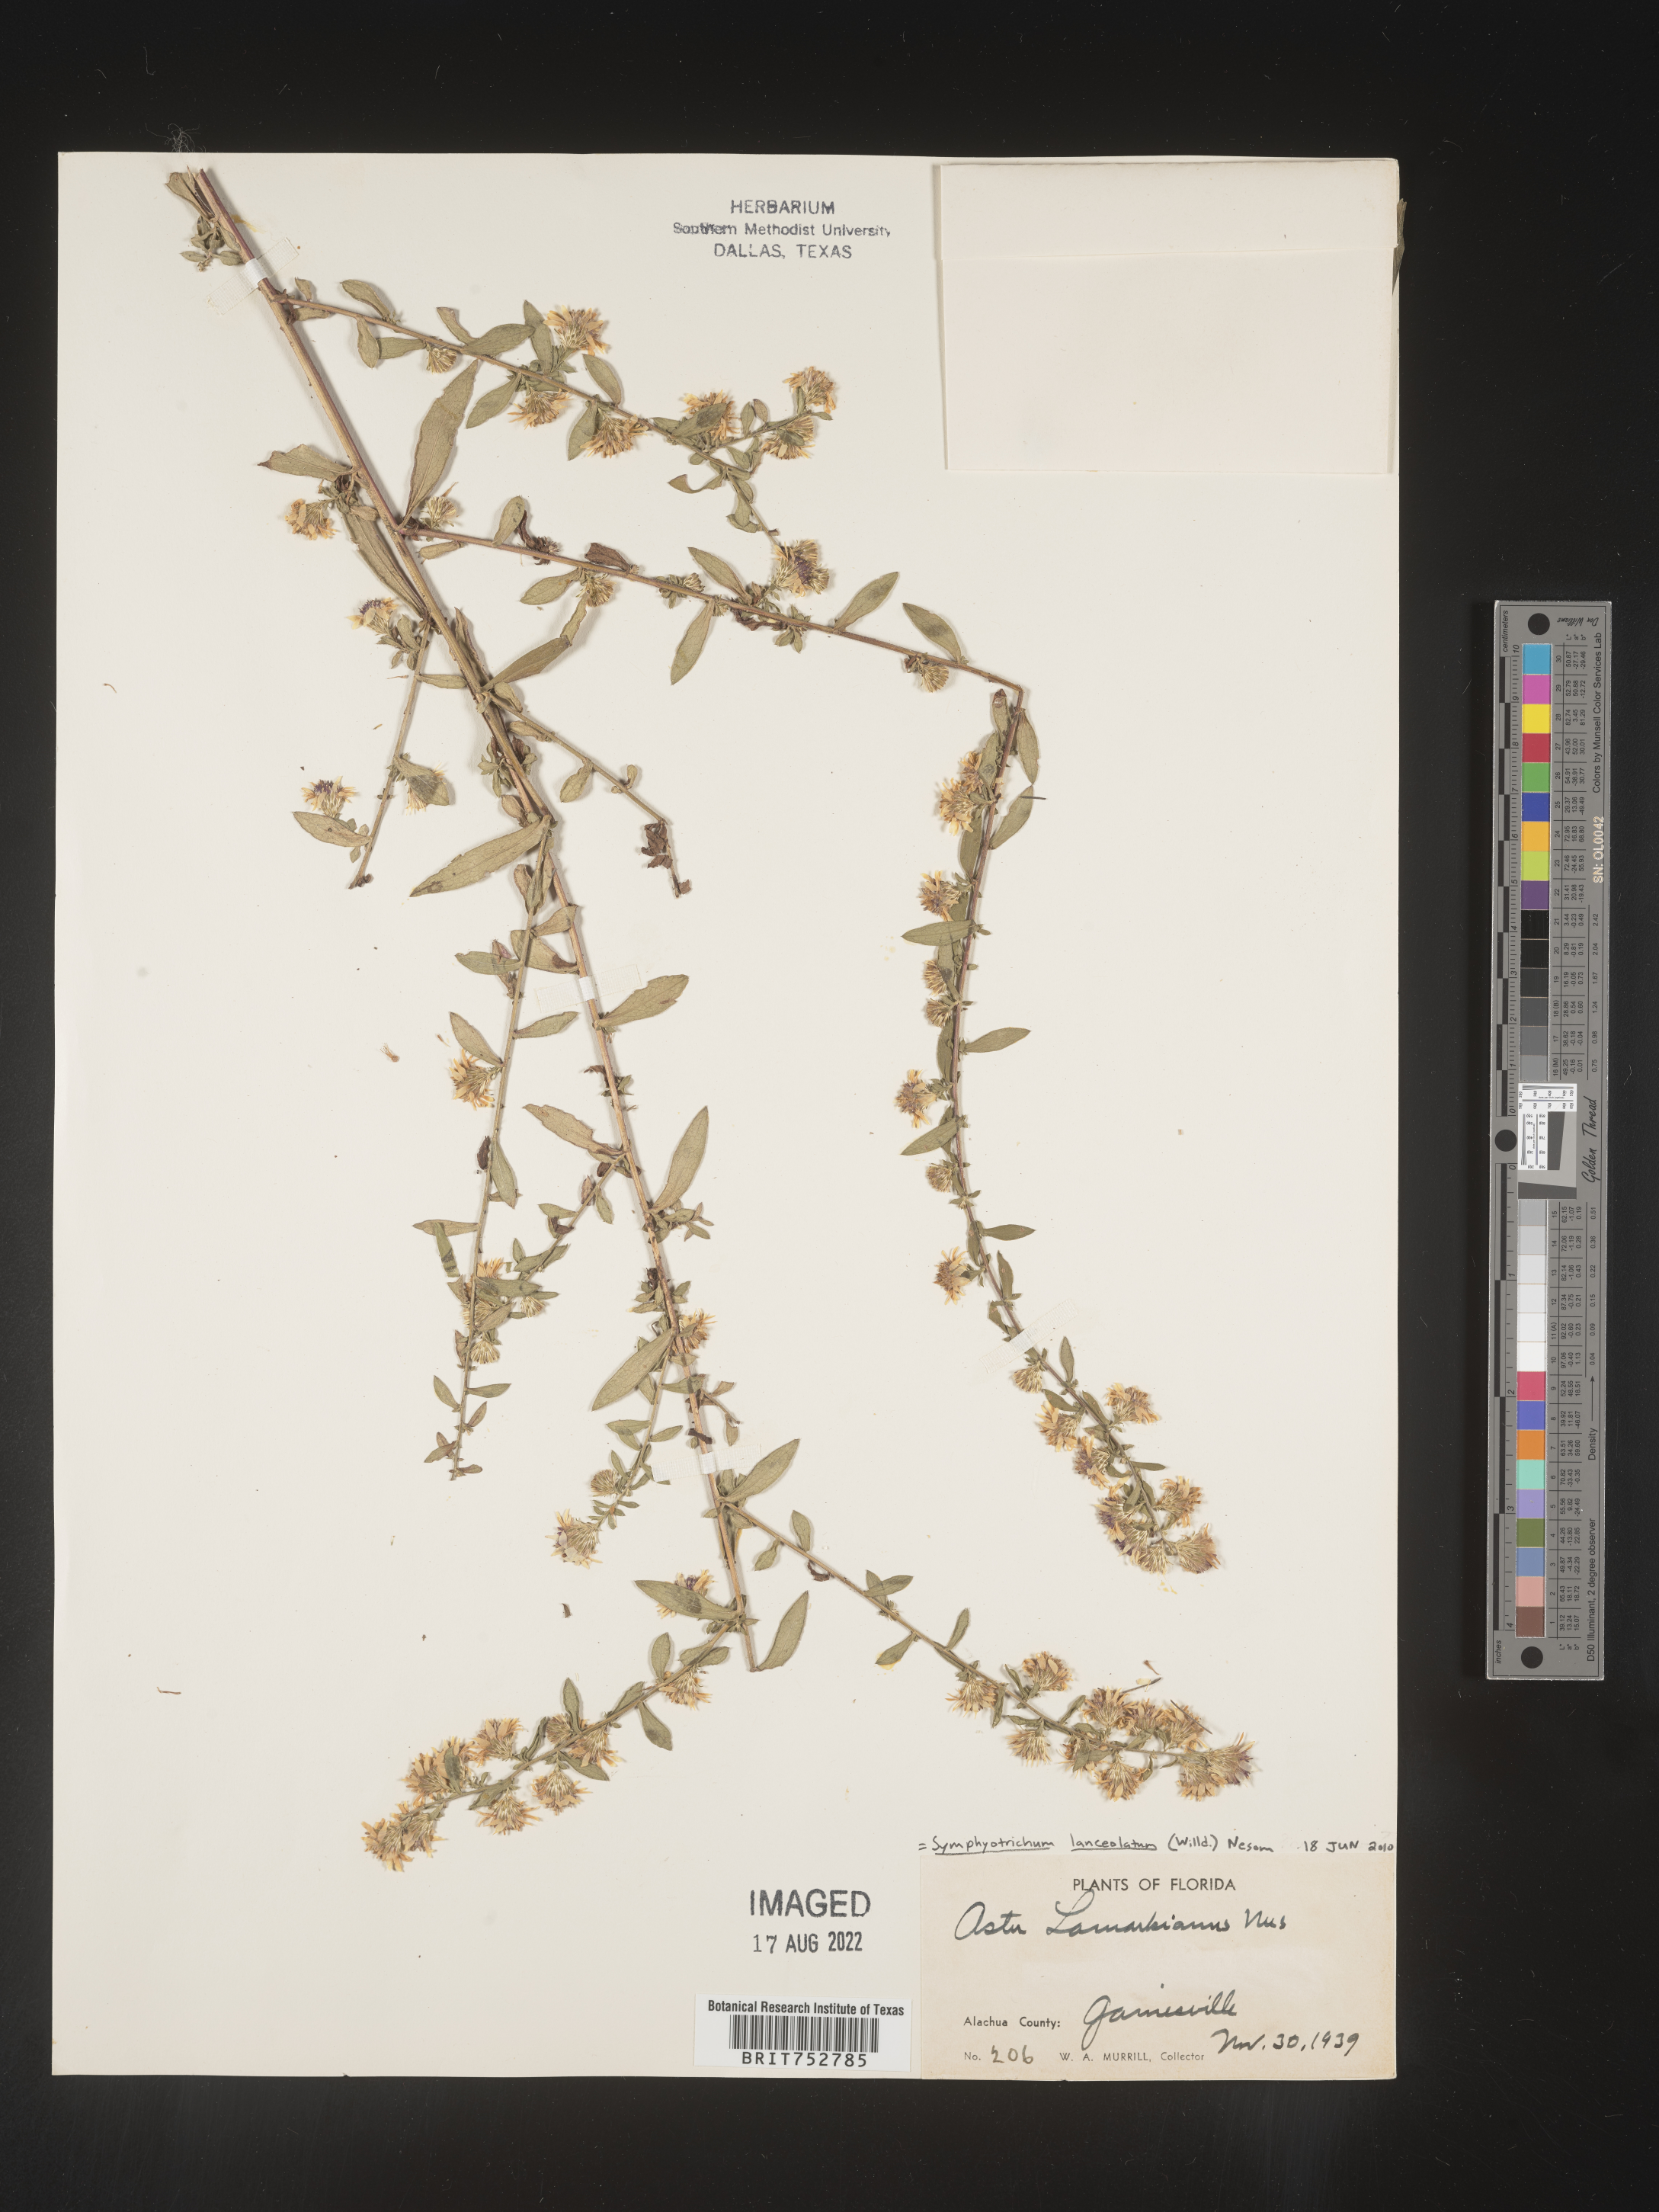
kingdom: Plantae
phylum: Tracheophyta
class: Magnoliopsida
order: Asterales
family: Asteraceae
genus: Symphyotrichum
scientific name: Symphyotrichum lanceolatum
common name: Panicled aster
